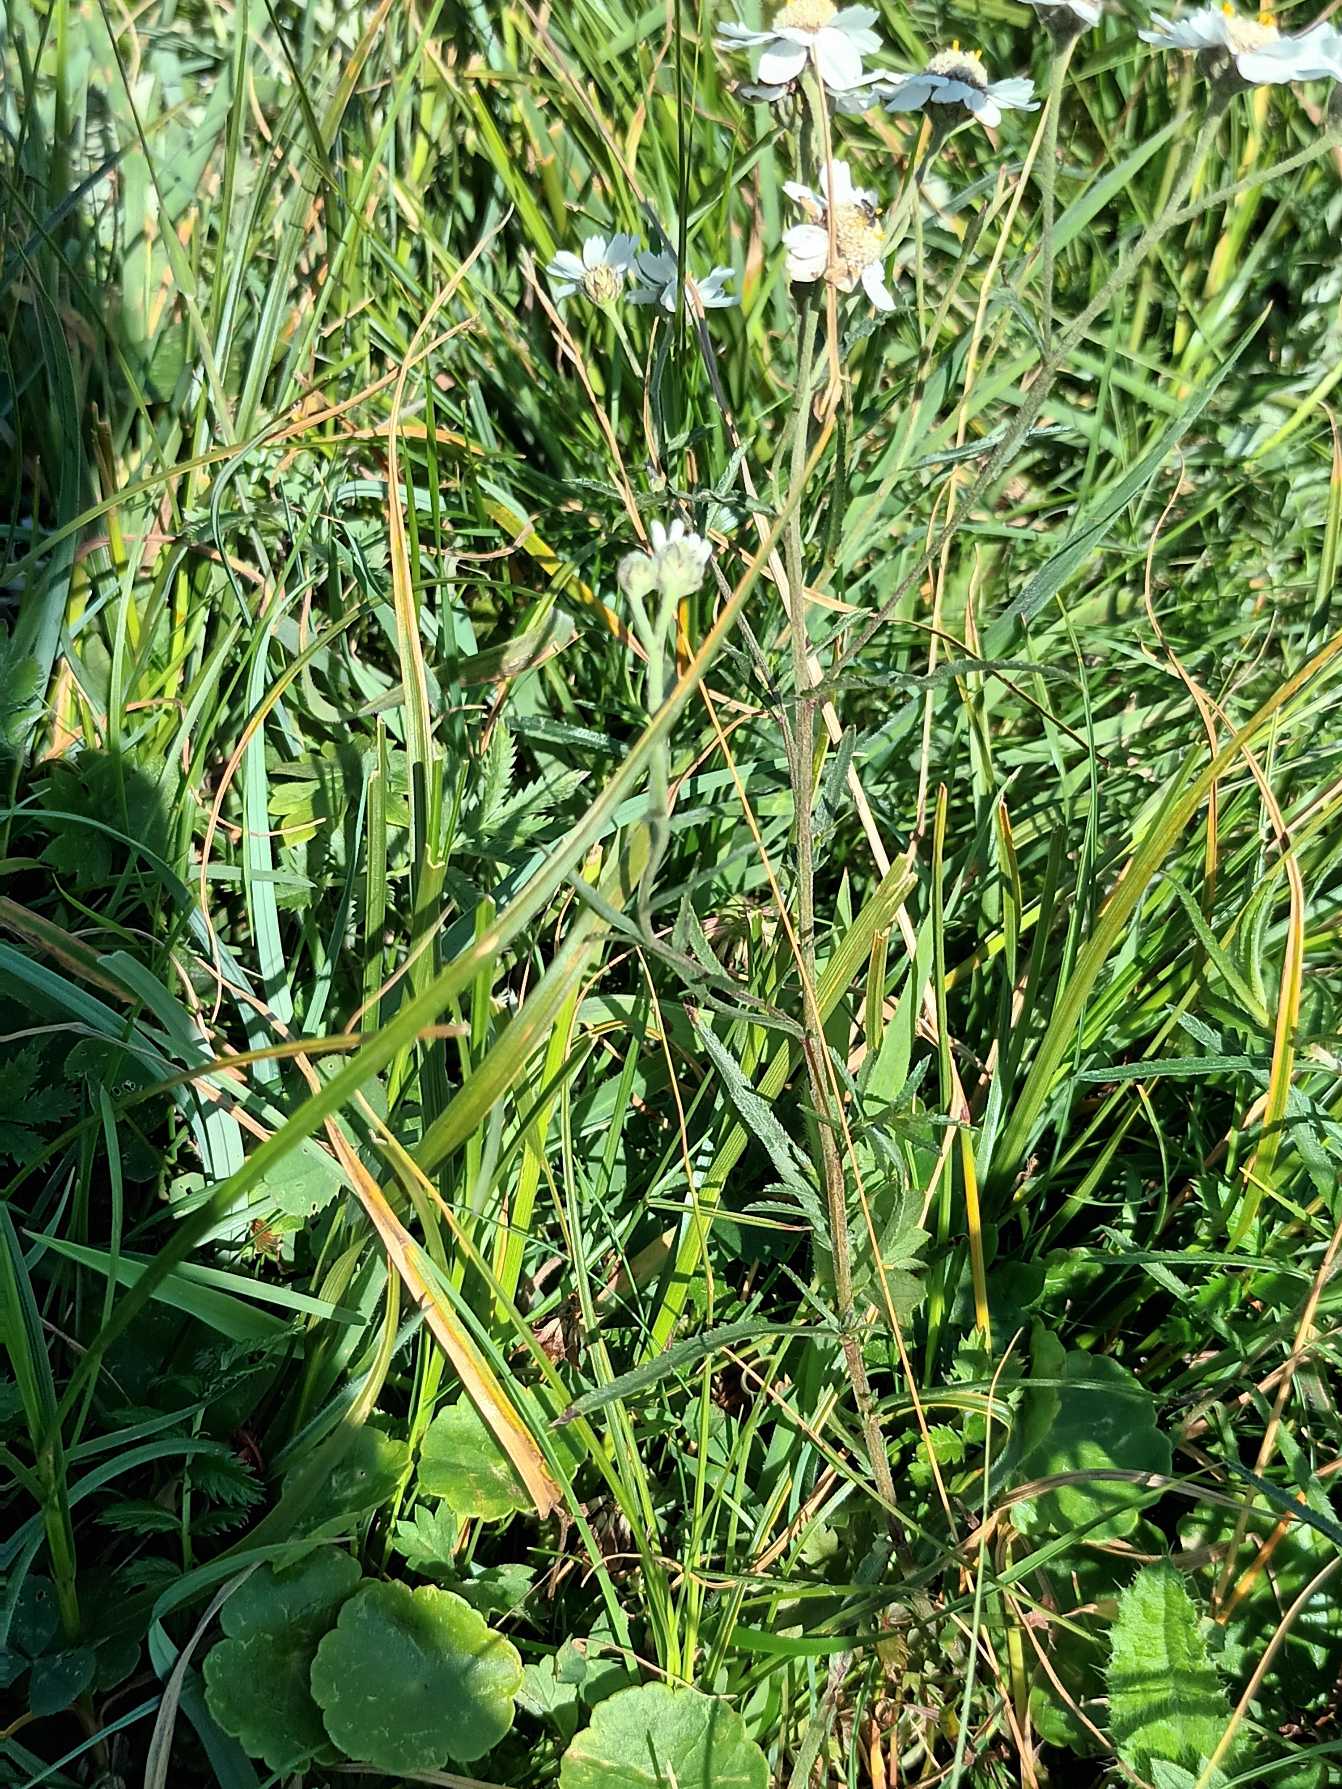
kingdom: Plantae
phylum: Tracheophyta
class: Magnoliopsida
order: Asterales
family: Asteraceae
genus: Achillea
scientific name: Achillea ptarmica
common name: Nyse-røllike
